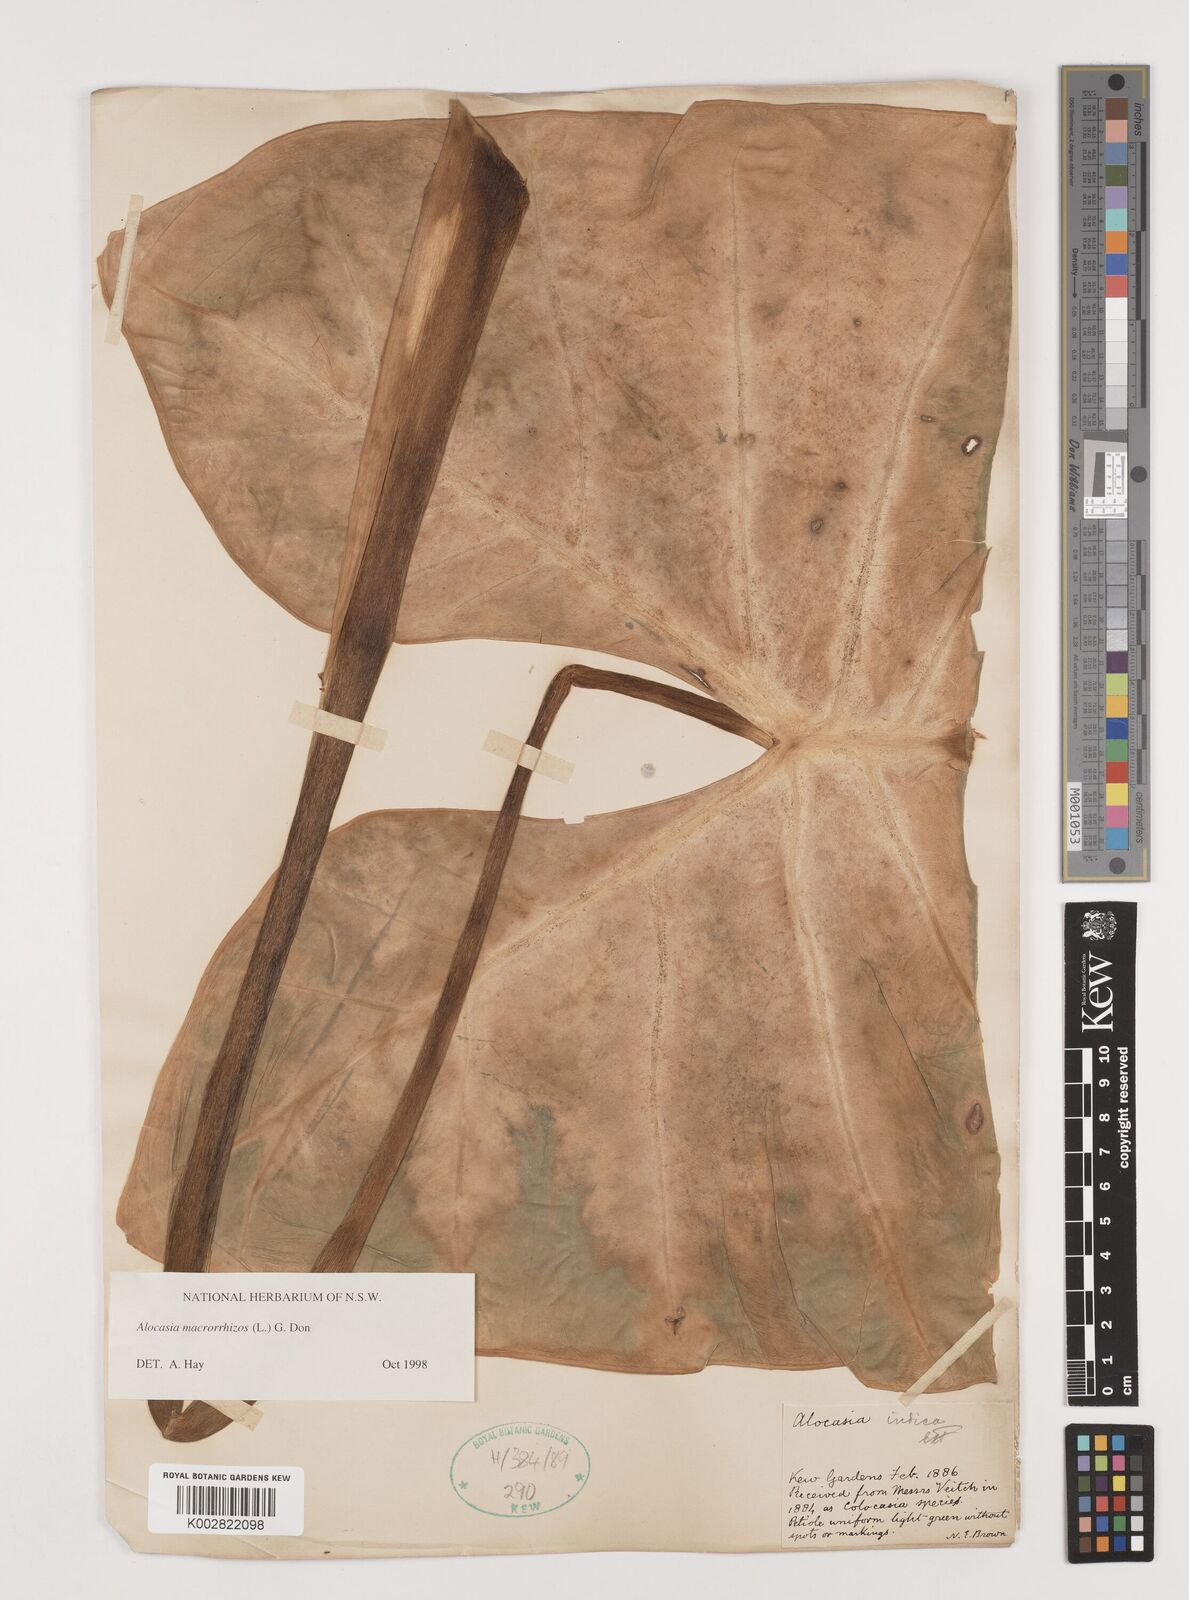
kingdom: Plantae
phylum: Tracheophyta
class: Liliopsida
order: Alismatales
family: Araceae
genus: Alocasia
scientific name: Alocasia macrorrhizos
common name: Giant taro
